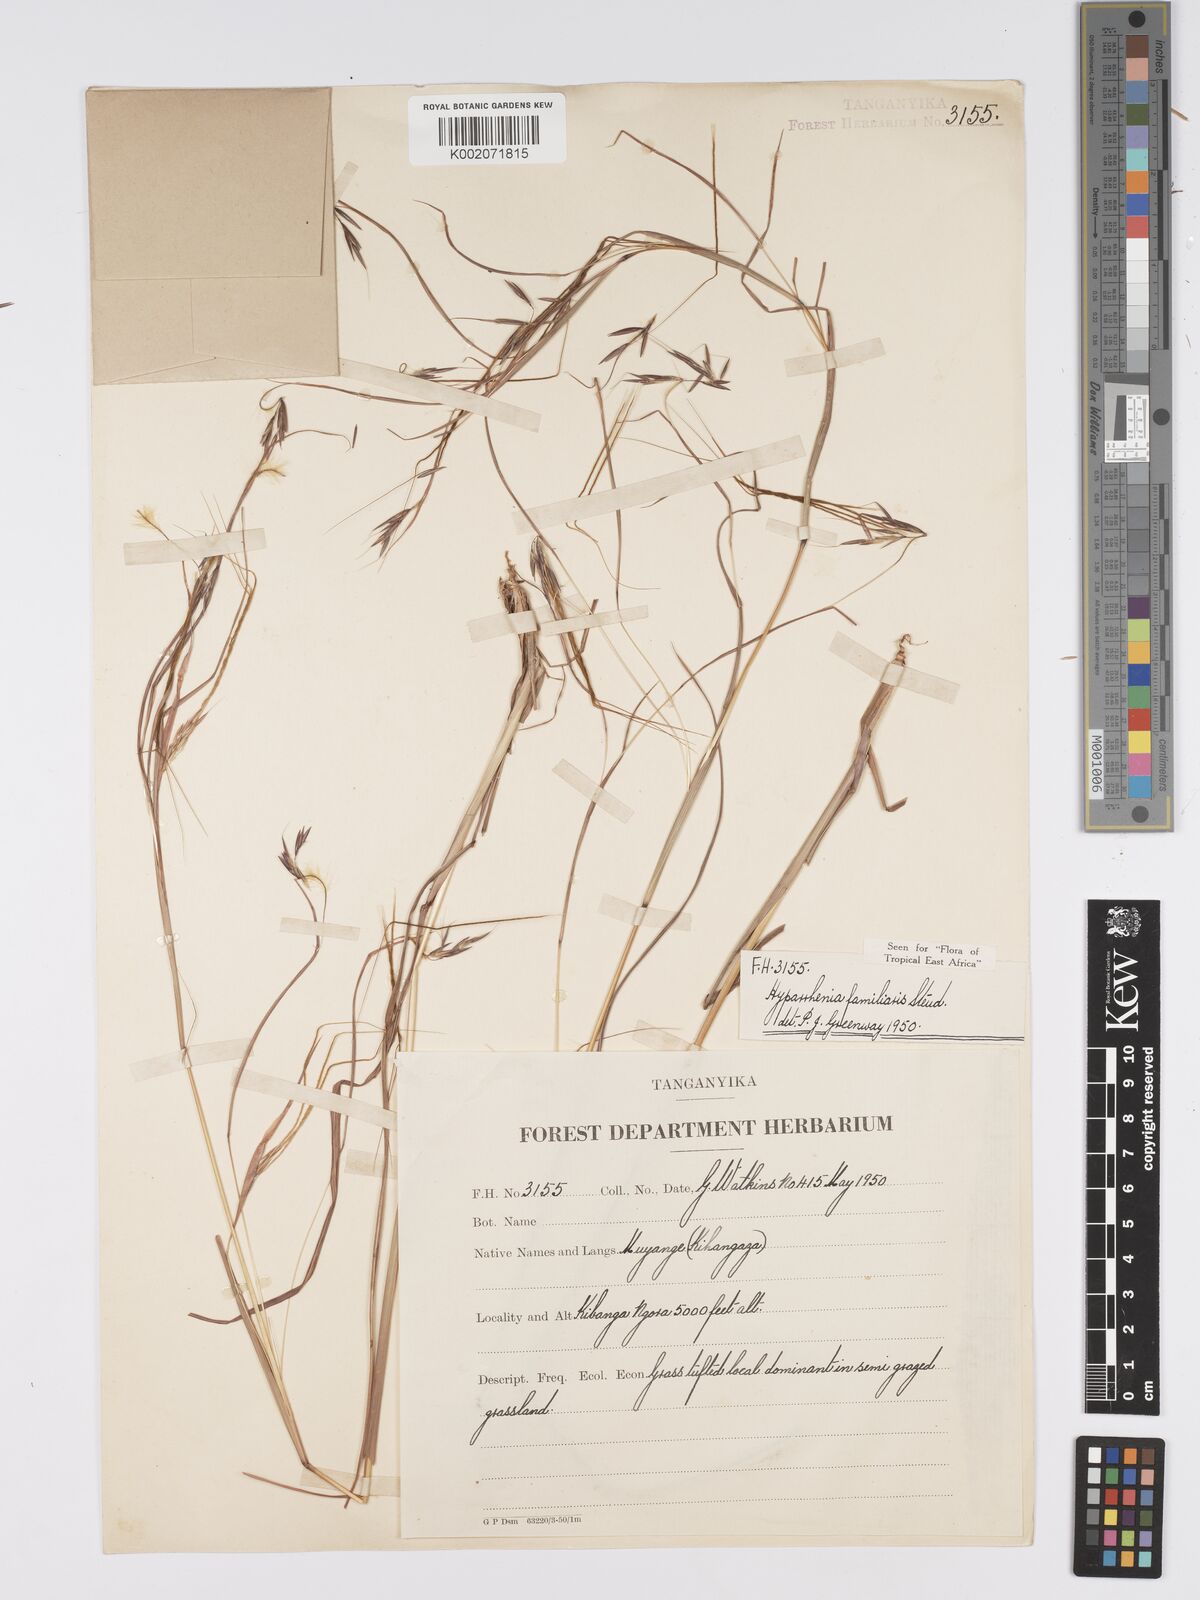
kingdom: Plantae
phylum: Tracheophyta
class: Liliopsida
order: Poales
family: Poaceae
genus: Hyparrhenia
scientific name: Hyparrhenia familiaris
